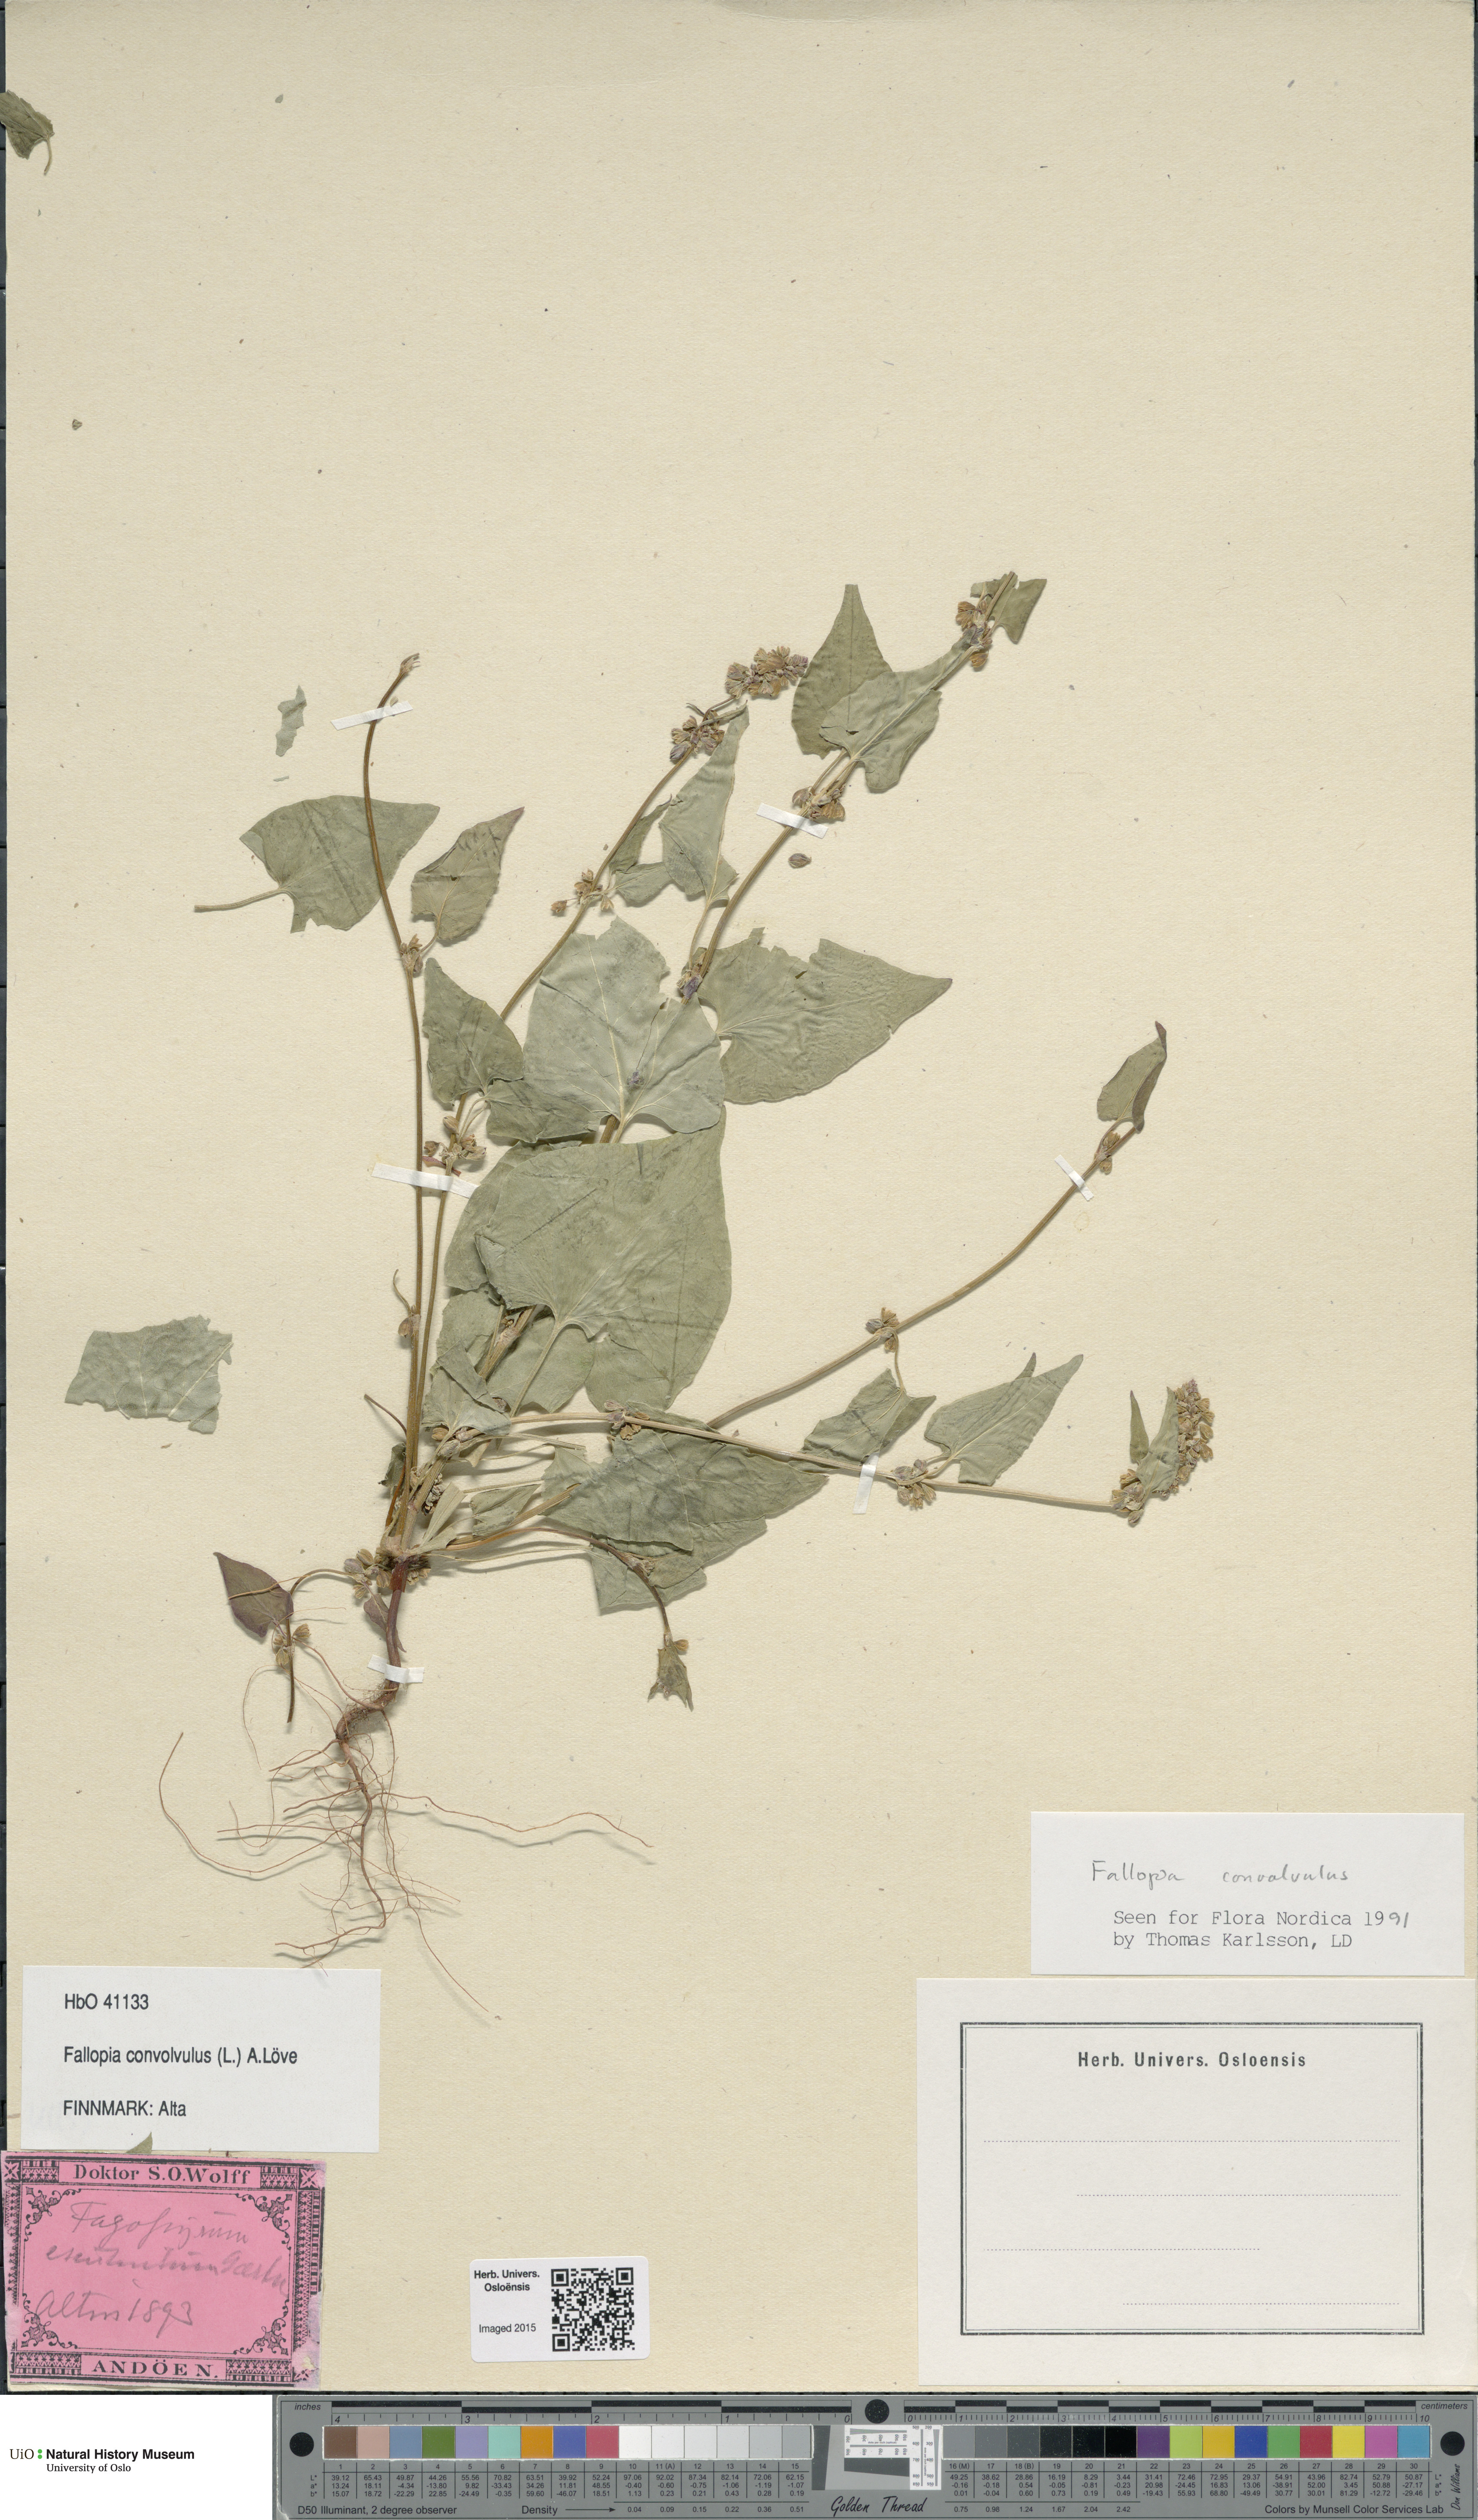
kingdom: Plantae
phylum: Tracheophyta
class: Magnoliopsida
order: Caryophyllales
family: Polygonaceae
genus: Fallopia
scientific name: Fallopia convolvulus
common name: Black bindweed
